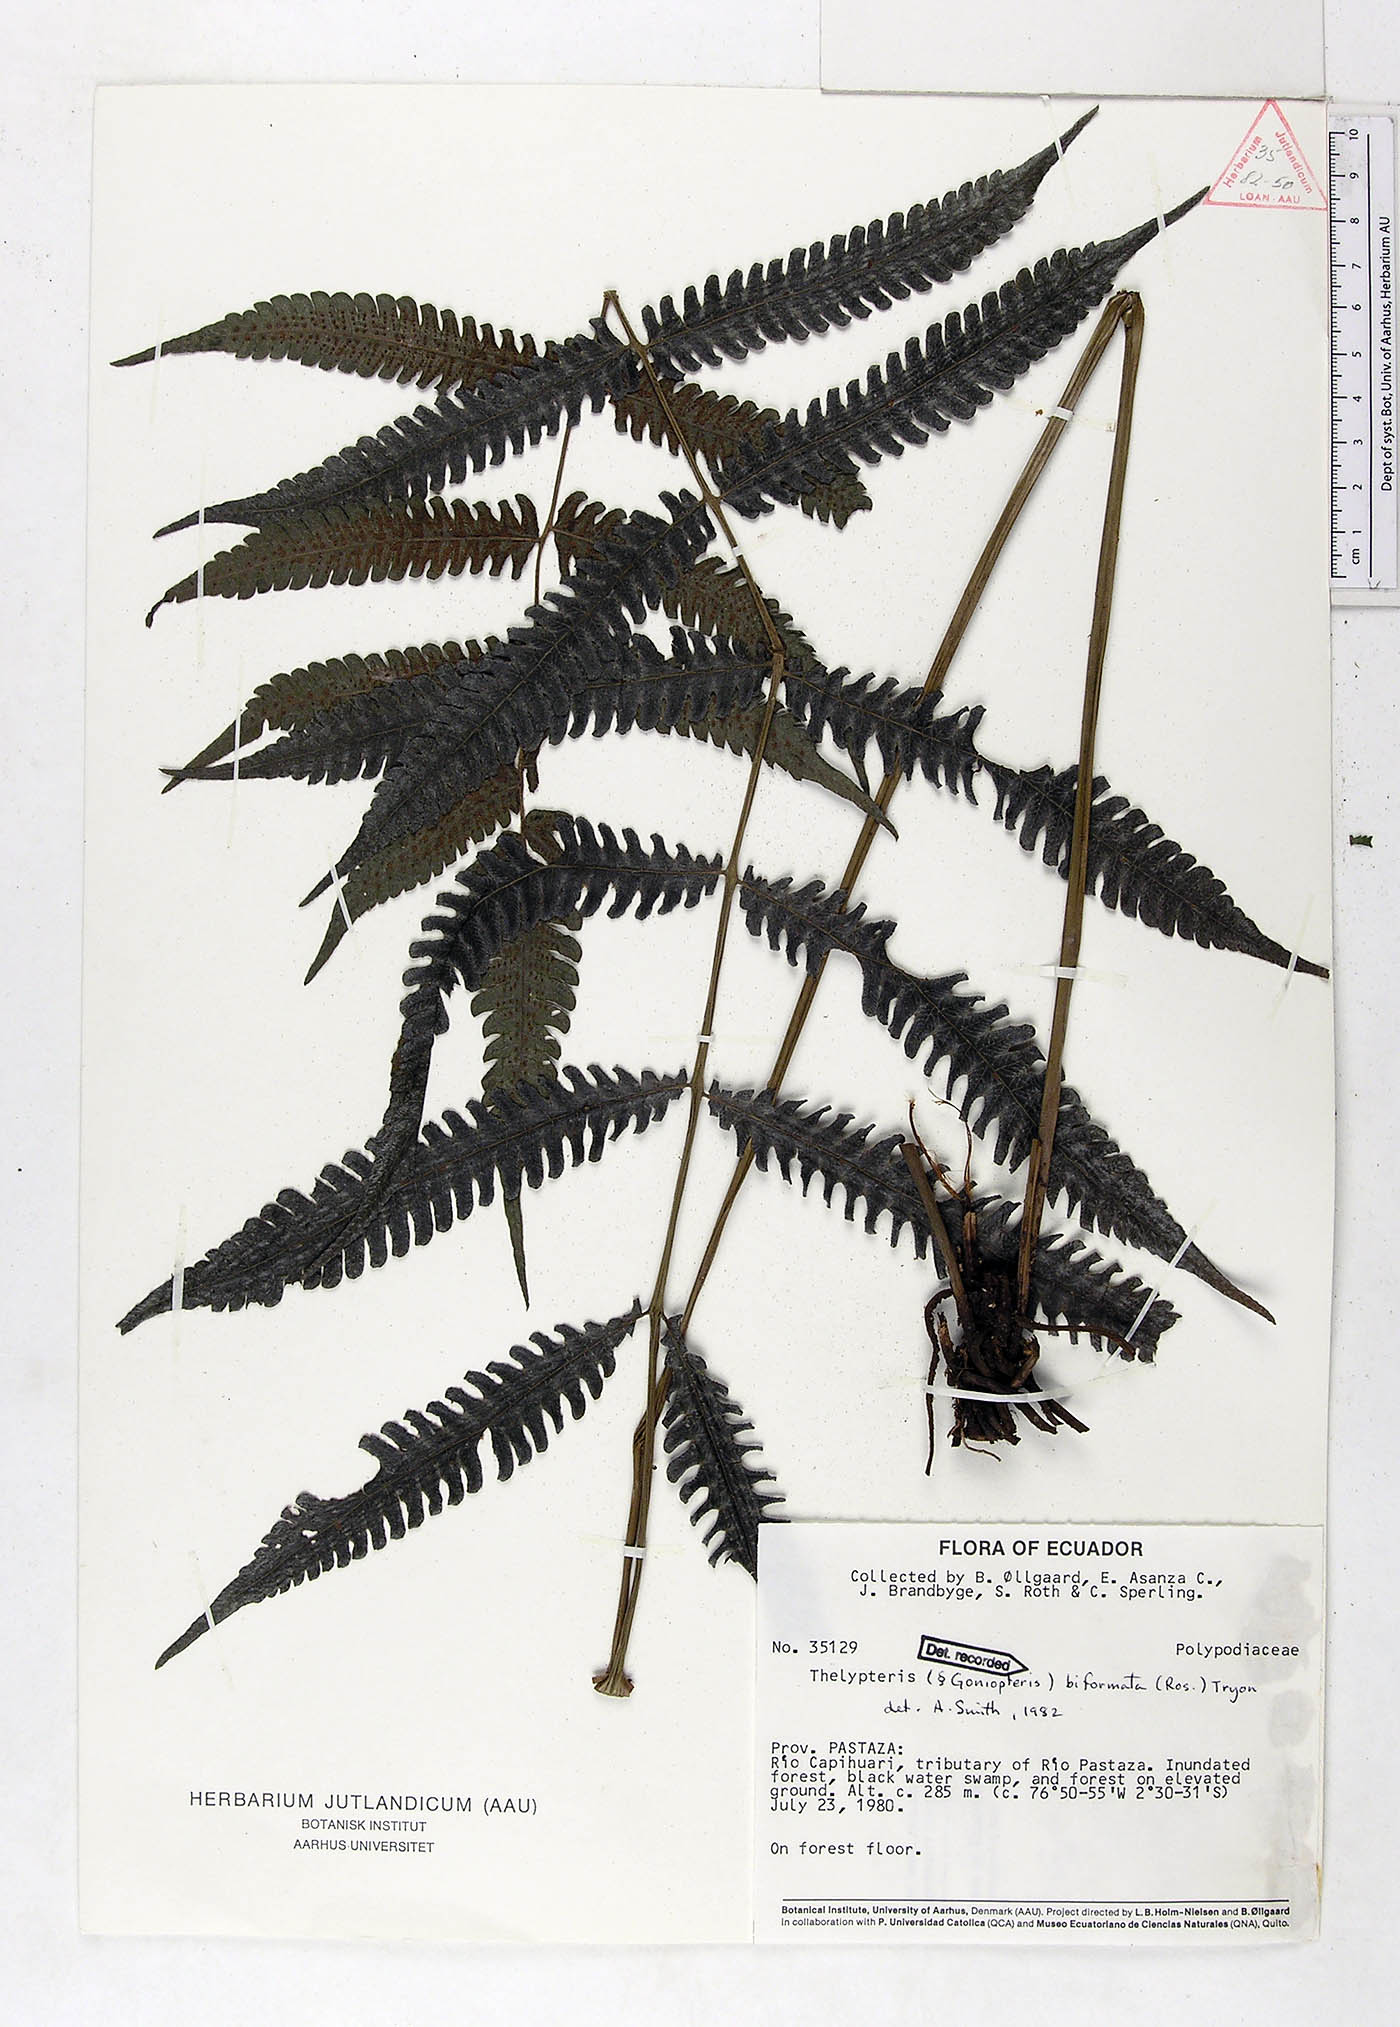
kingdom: Plantae
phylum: Tracheophyta
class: Polypodiopsida
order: Polypodiales
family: Thelypteridaceae
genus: Goniopteris
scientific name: Goniopteris biformata
